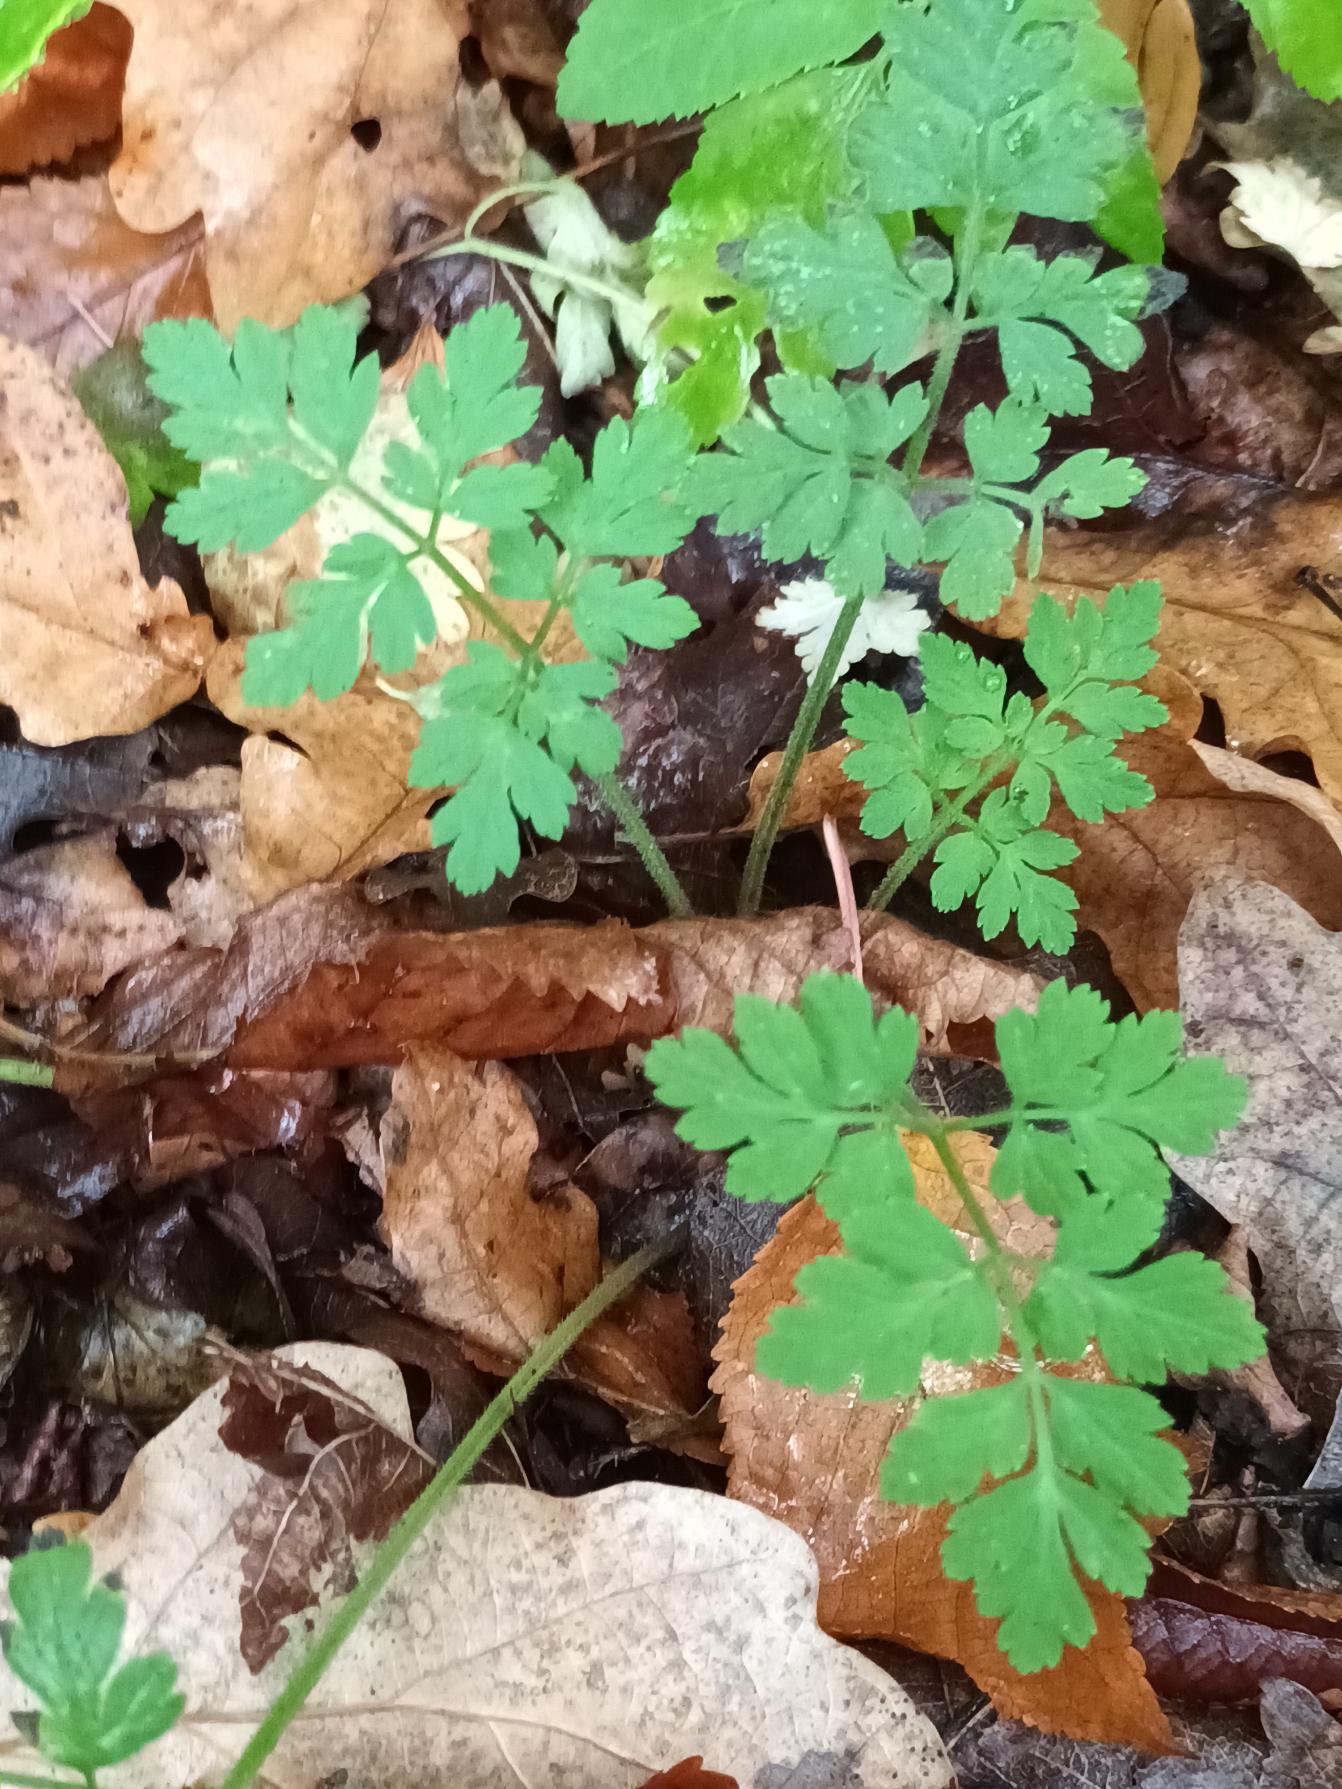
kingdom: Plantae
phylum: Tracheophyta
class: Magnoliopsida
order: Apiales
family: Apiaceae
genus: Chaerophyllum
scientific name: Chaerophyllum temulum
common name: Almindelig hulsvøb
